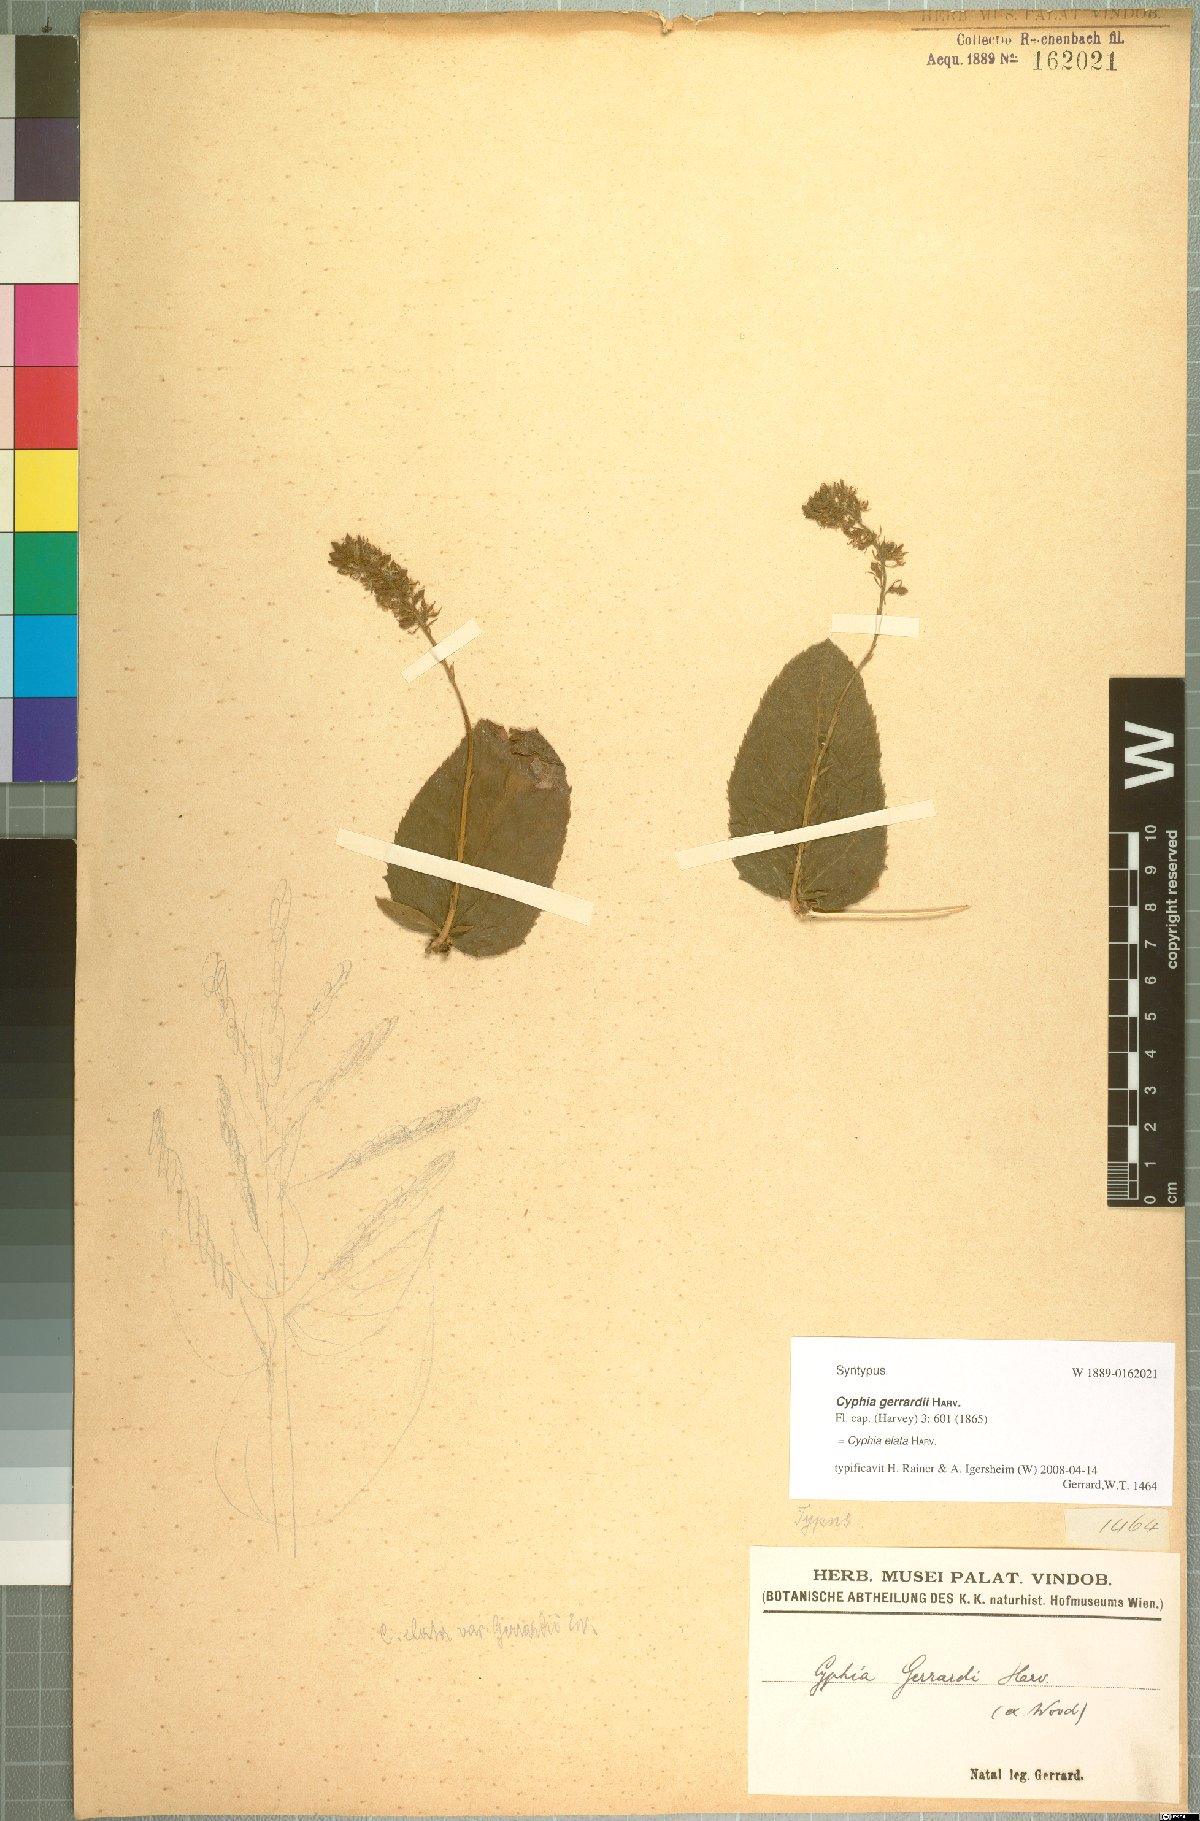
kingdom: Plantae
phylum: Tracheophyta
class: Magnoliopsida
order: Asterales
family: Campanulaceae
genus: Cyphia
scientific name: Cyphia elata
